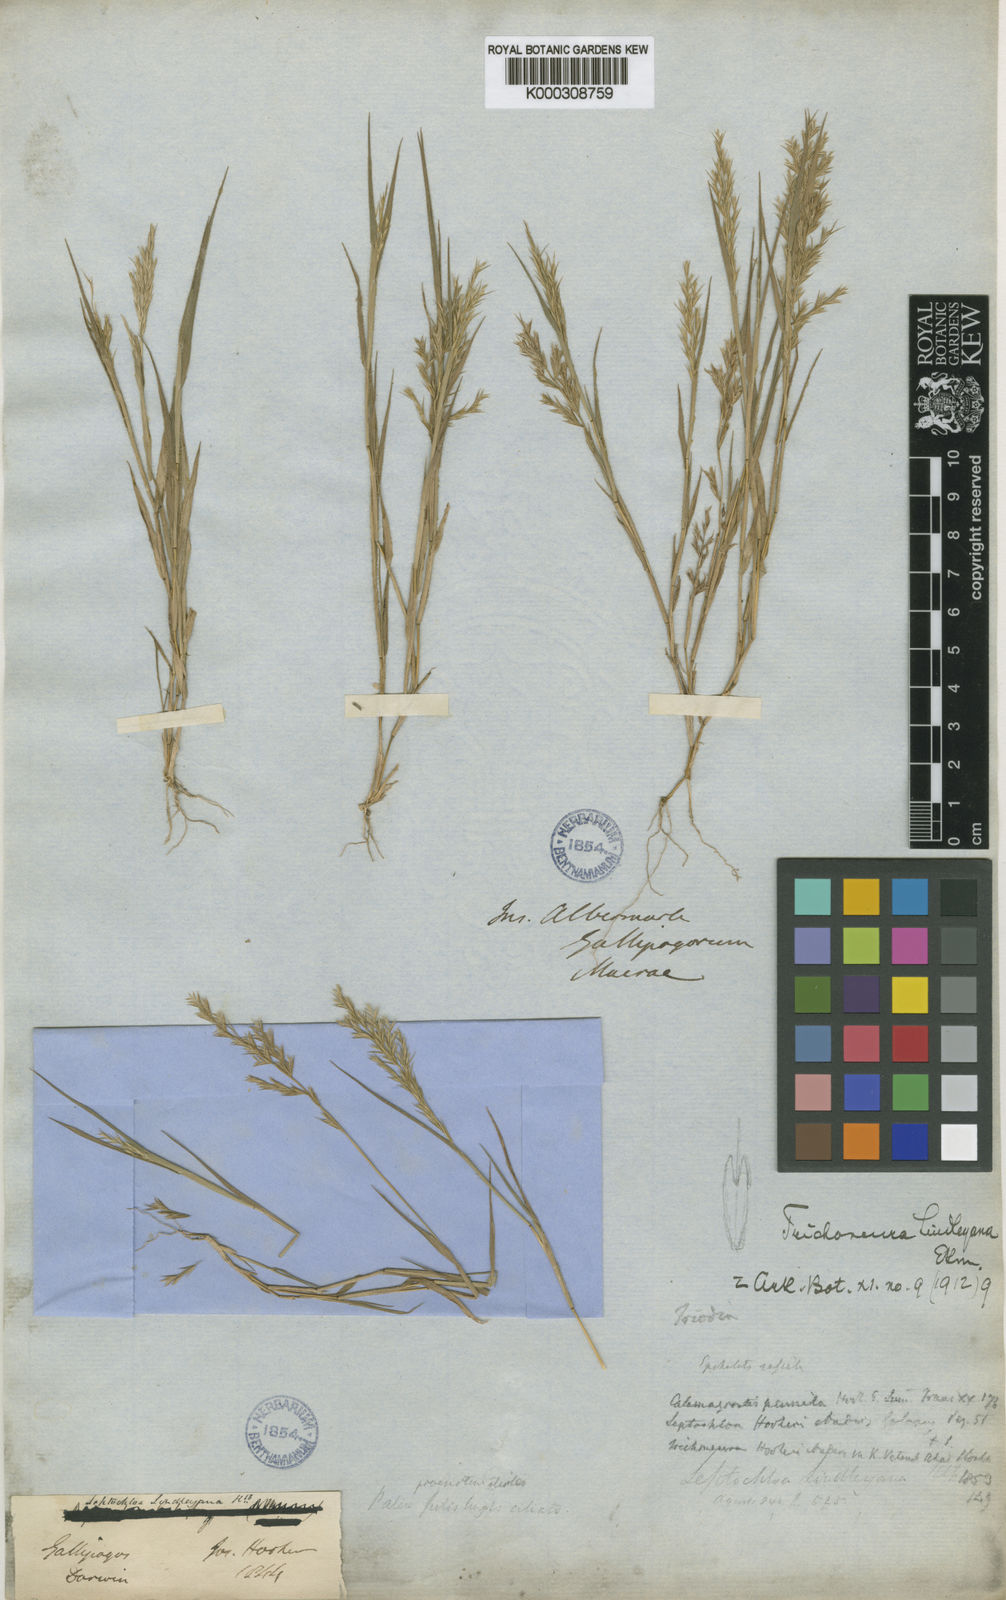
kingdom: Plantae
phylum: Tracheophyta
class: Liliopsida
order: Poales
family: Poaceae
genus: Trichoneura
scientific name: Trichoneura lindleyana
